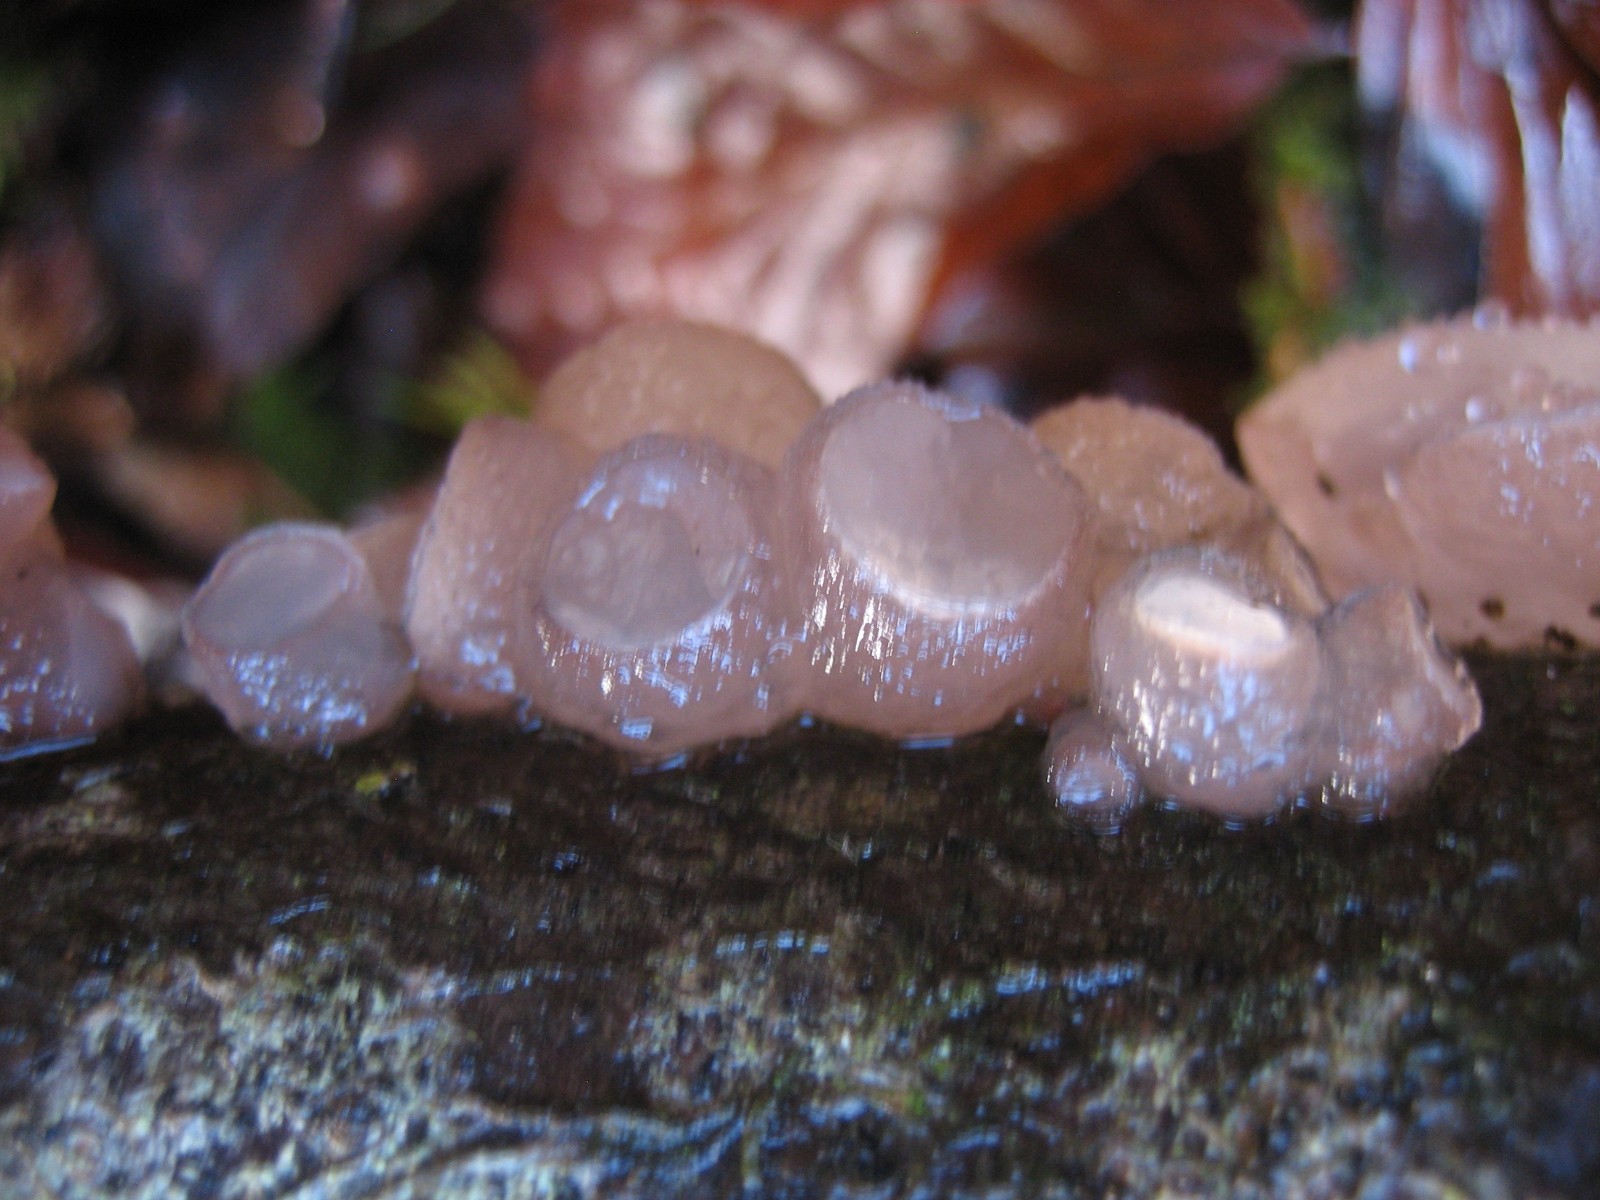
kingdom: Fungi
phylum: Ascomycota
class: Leotiomycetes
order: Helotiales
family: Gelatinodiscaceae
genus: Neobulgaria
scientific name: Neobulgaria pura
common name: bleg bævreskive
